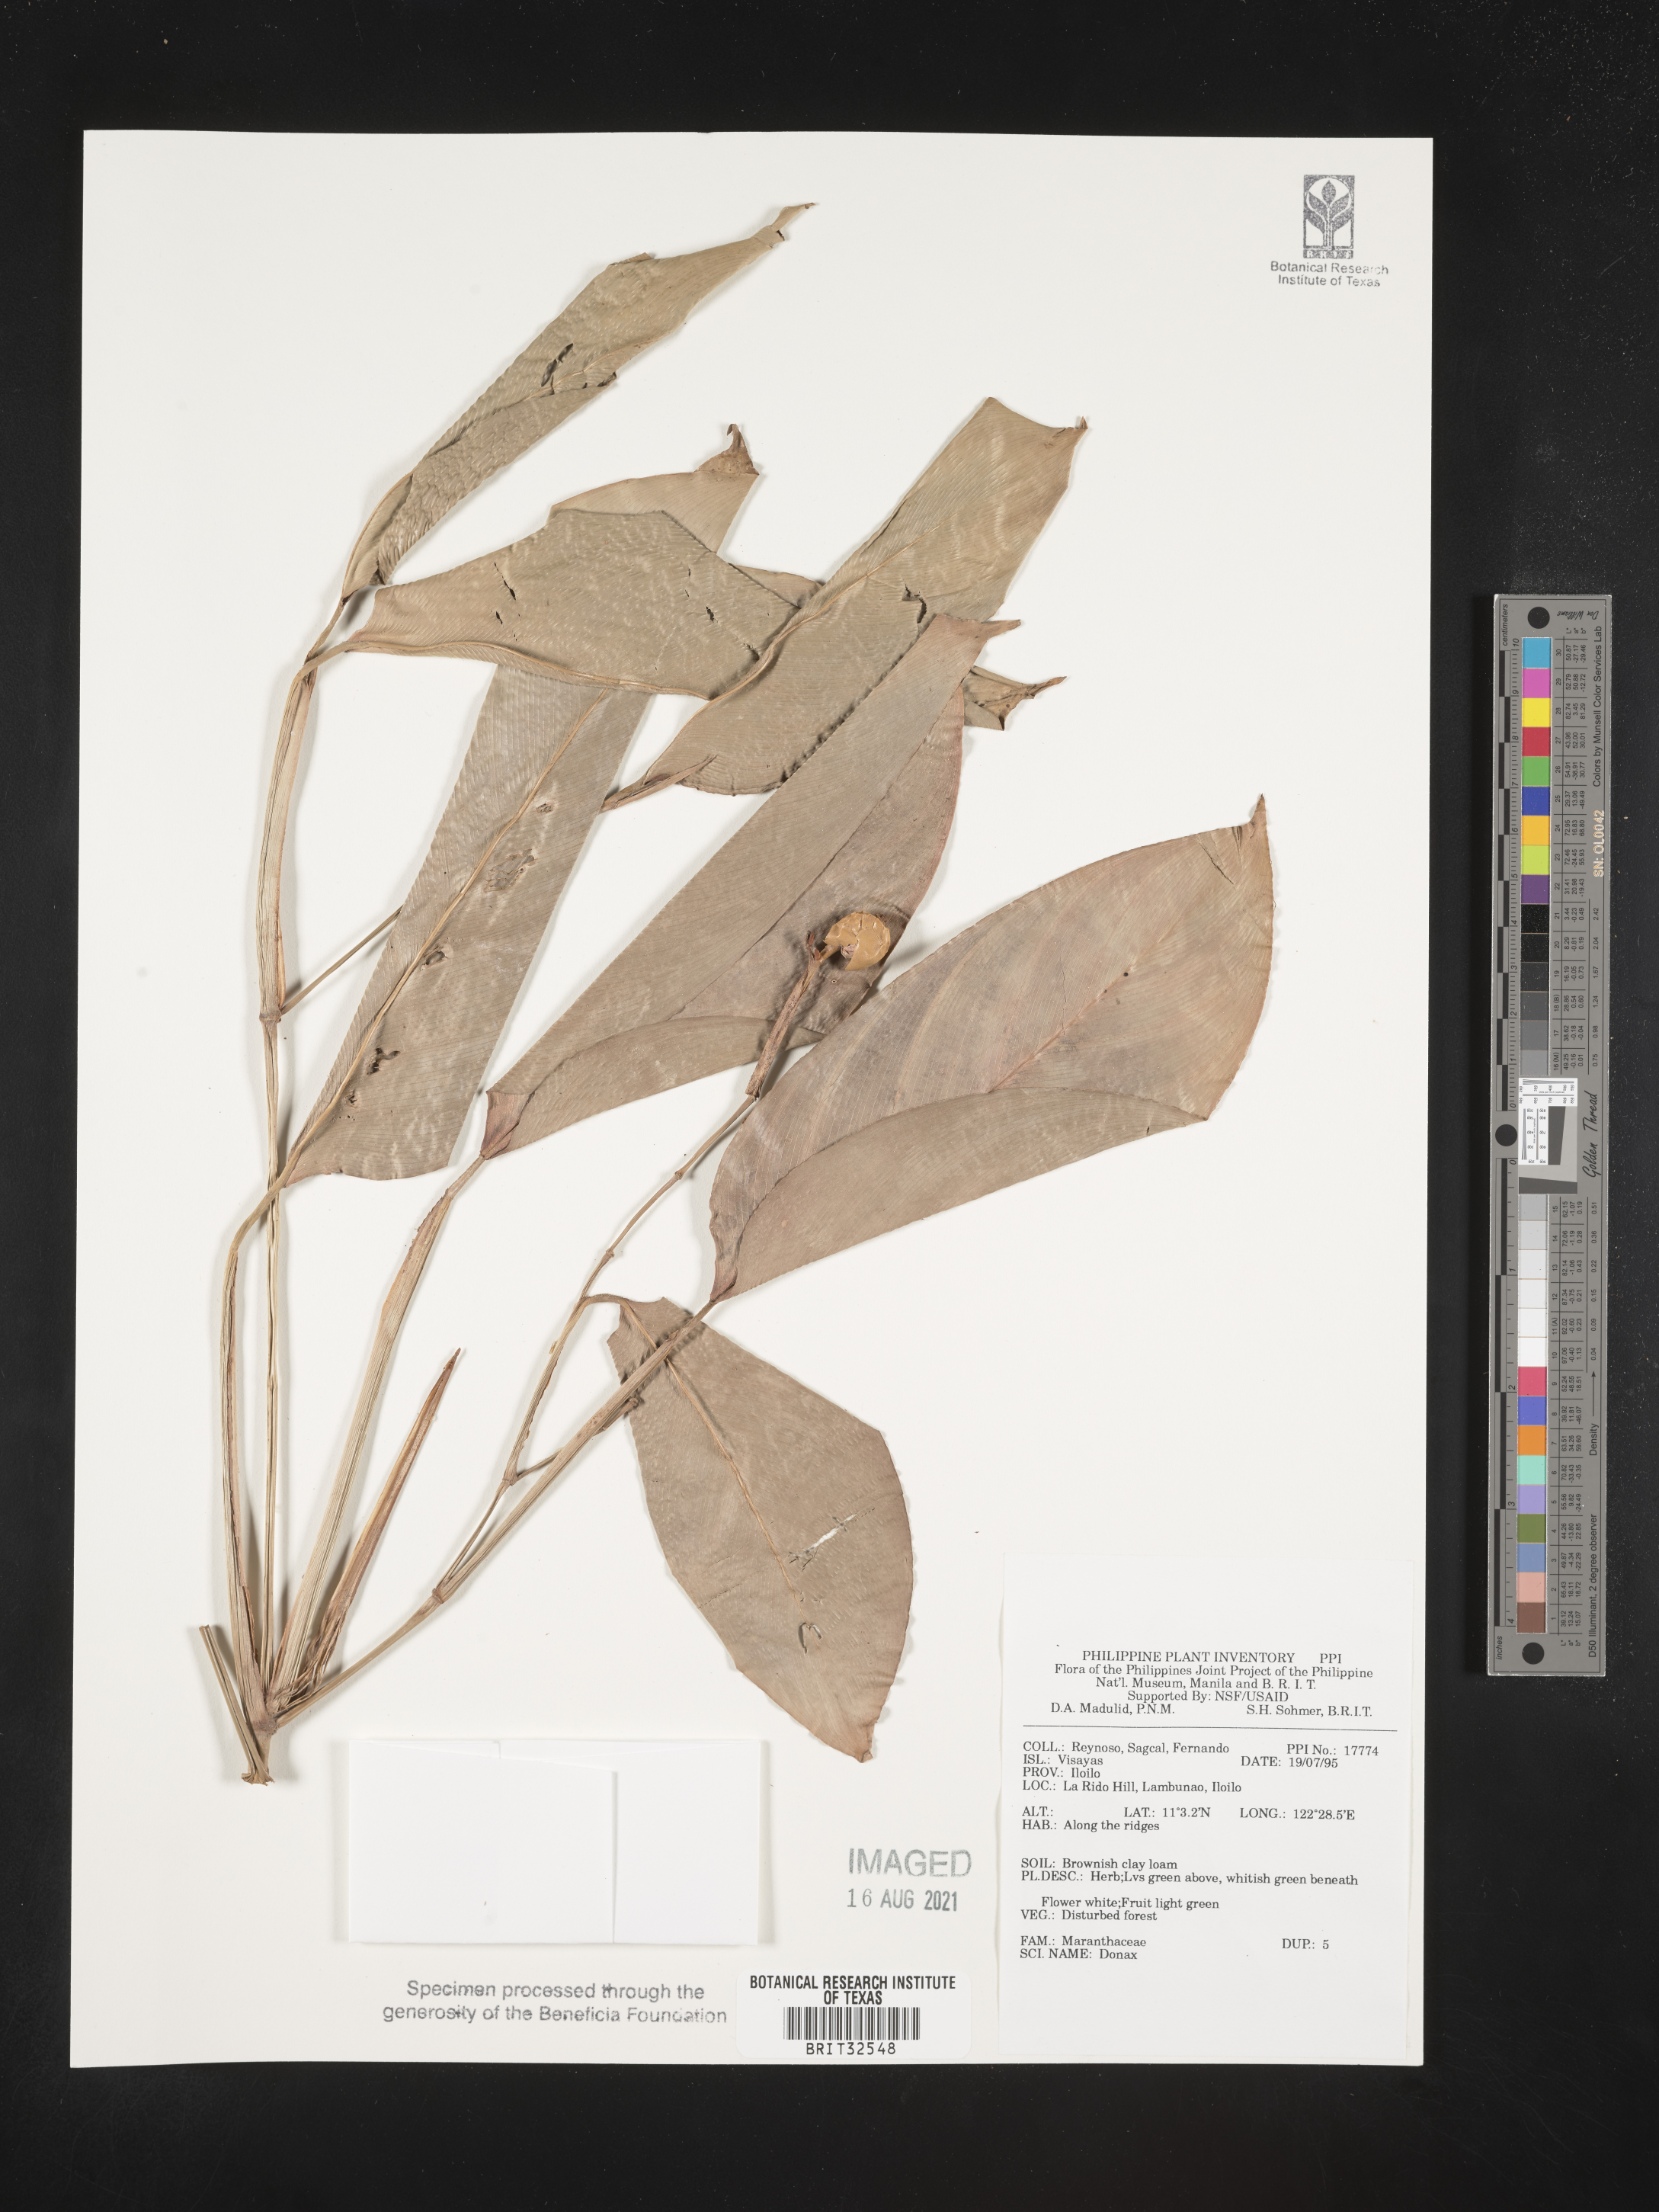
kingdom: Plantae
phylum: Tracheophyta
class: Liliopsida
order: Zingiberales
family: Marantaceae
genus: Donax
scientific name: Donax
